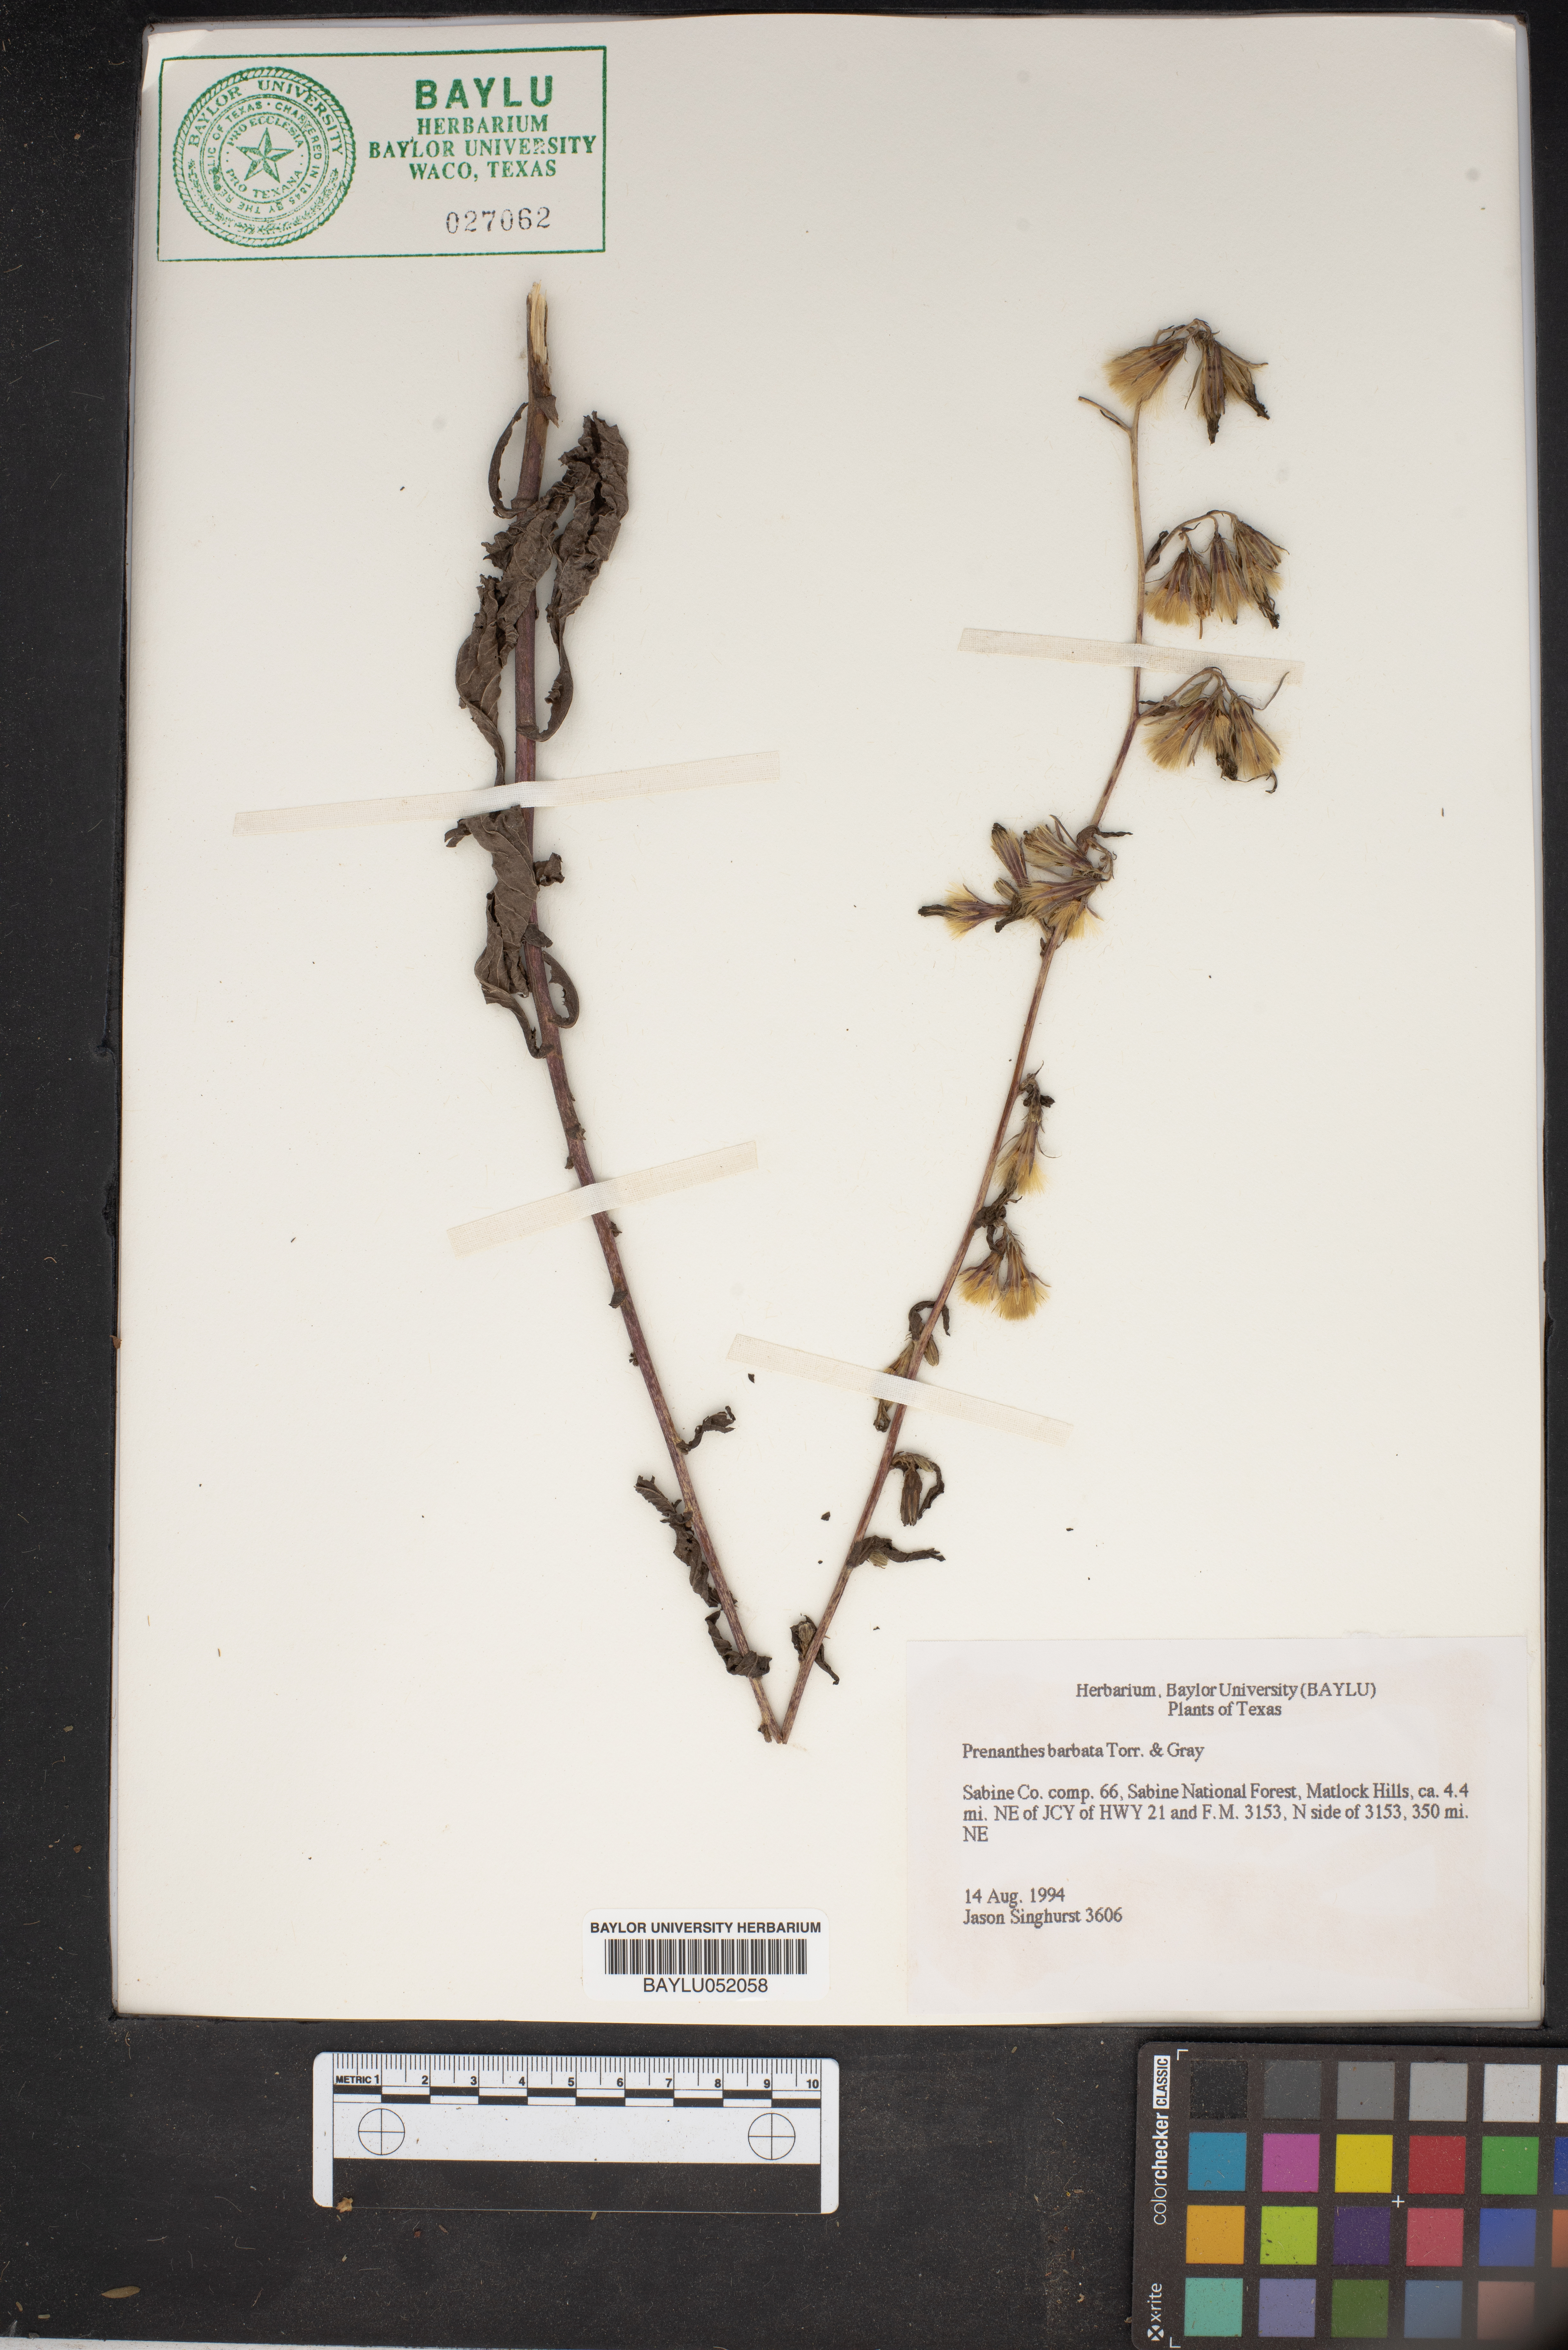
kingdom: Plantae
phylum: Tracheophyta
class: Magnoliopsida
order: Asterales
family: Asteraceae
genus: Nabalus
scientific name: Nabalus barbata
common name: Barbed rattlesnakeroot
